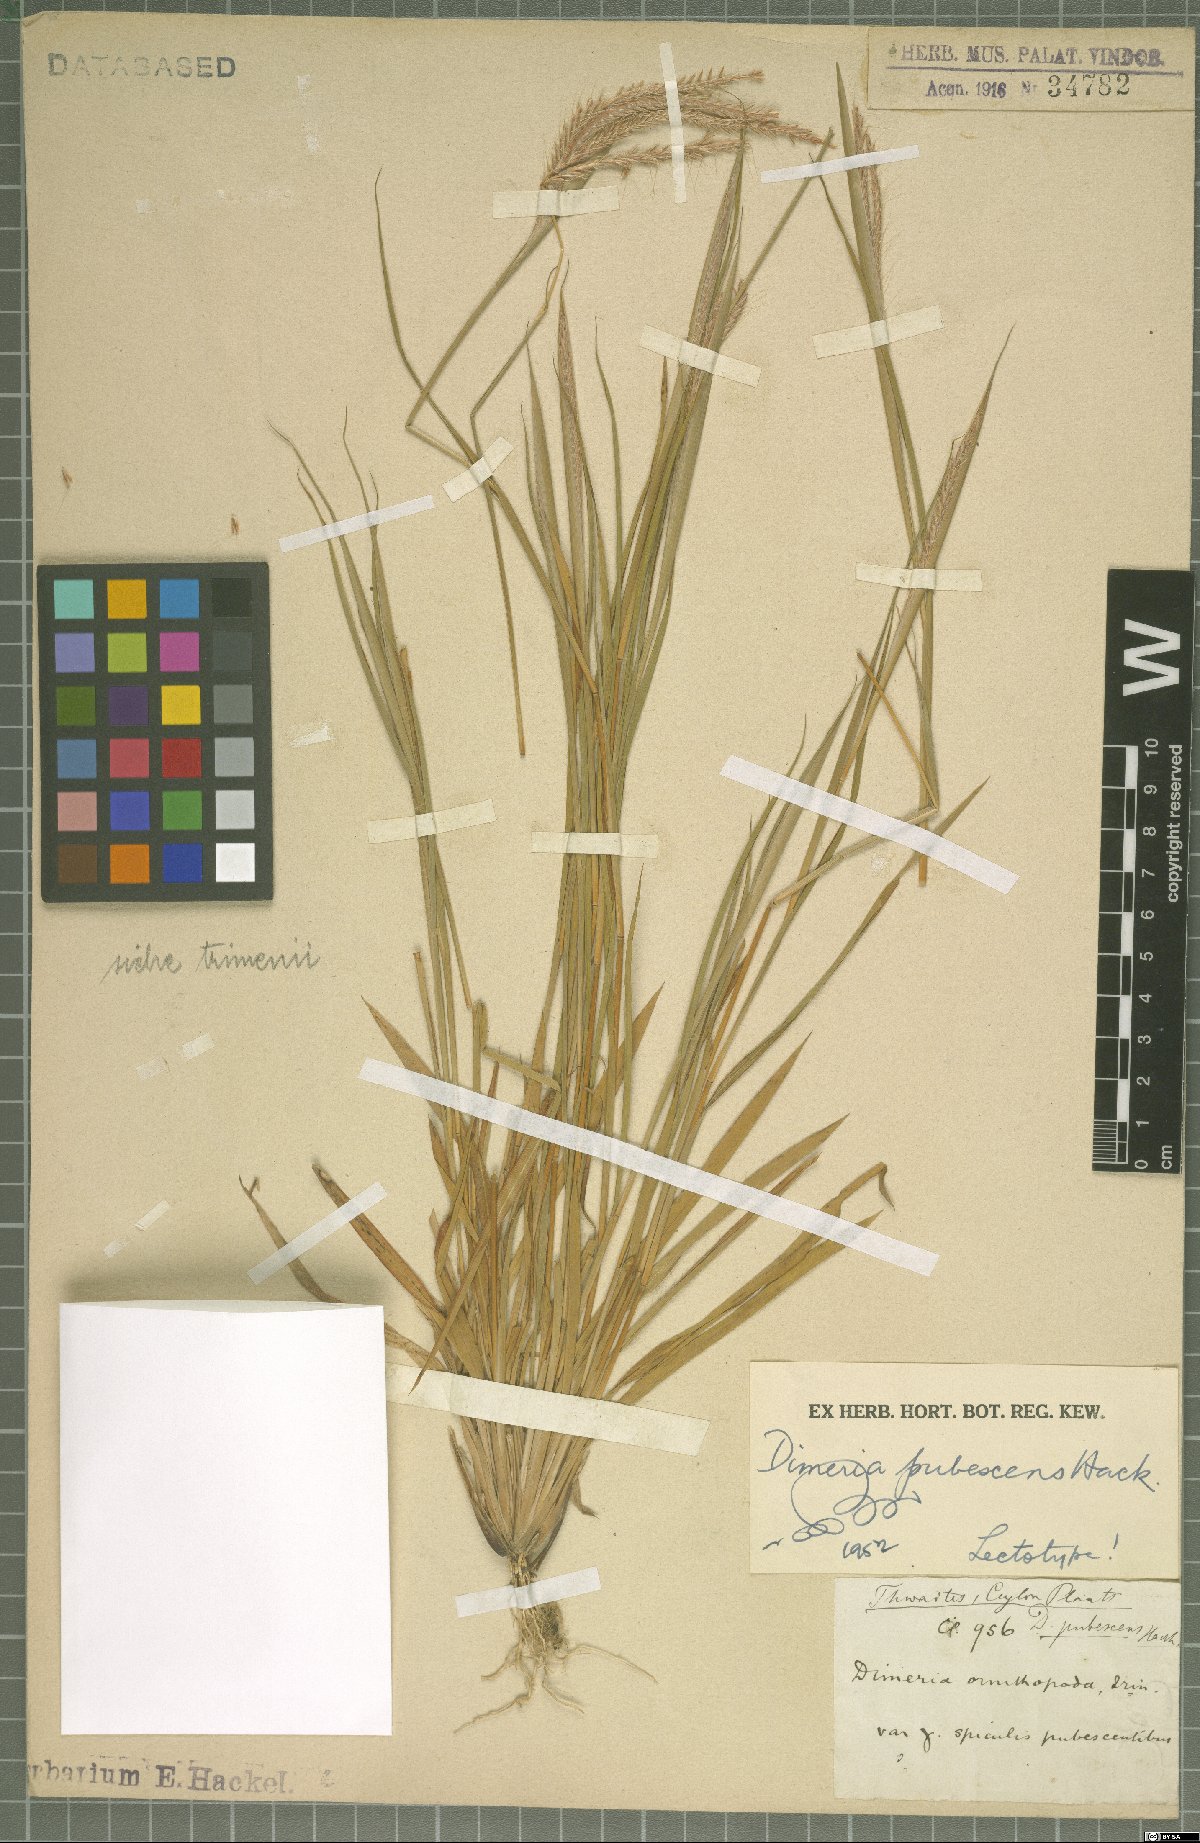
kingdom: Plantae
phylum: Tracheophyta
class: Liliopsida
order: Poales
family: Poaceae
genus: Dimeria
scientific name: Dimeria pubescens
